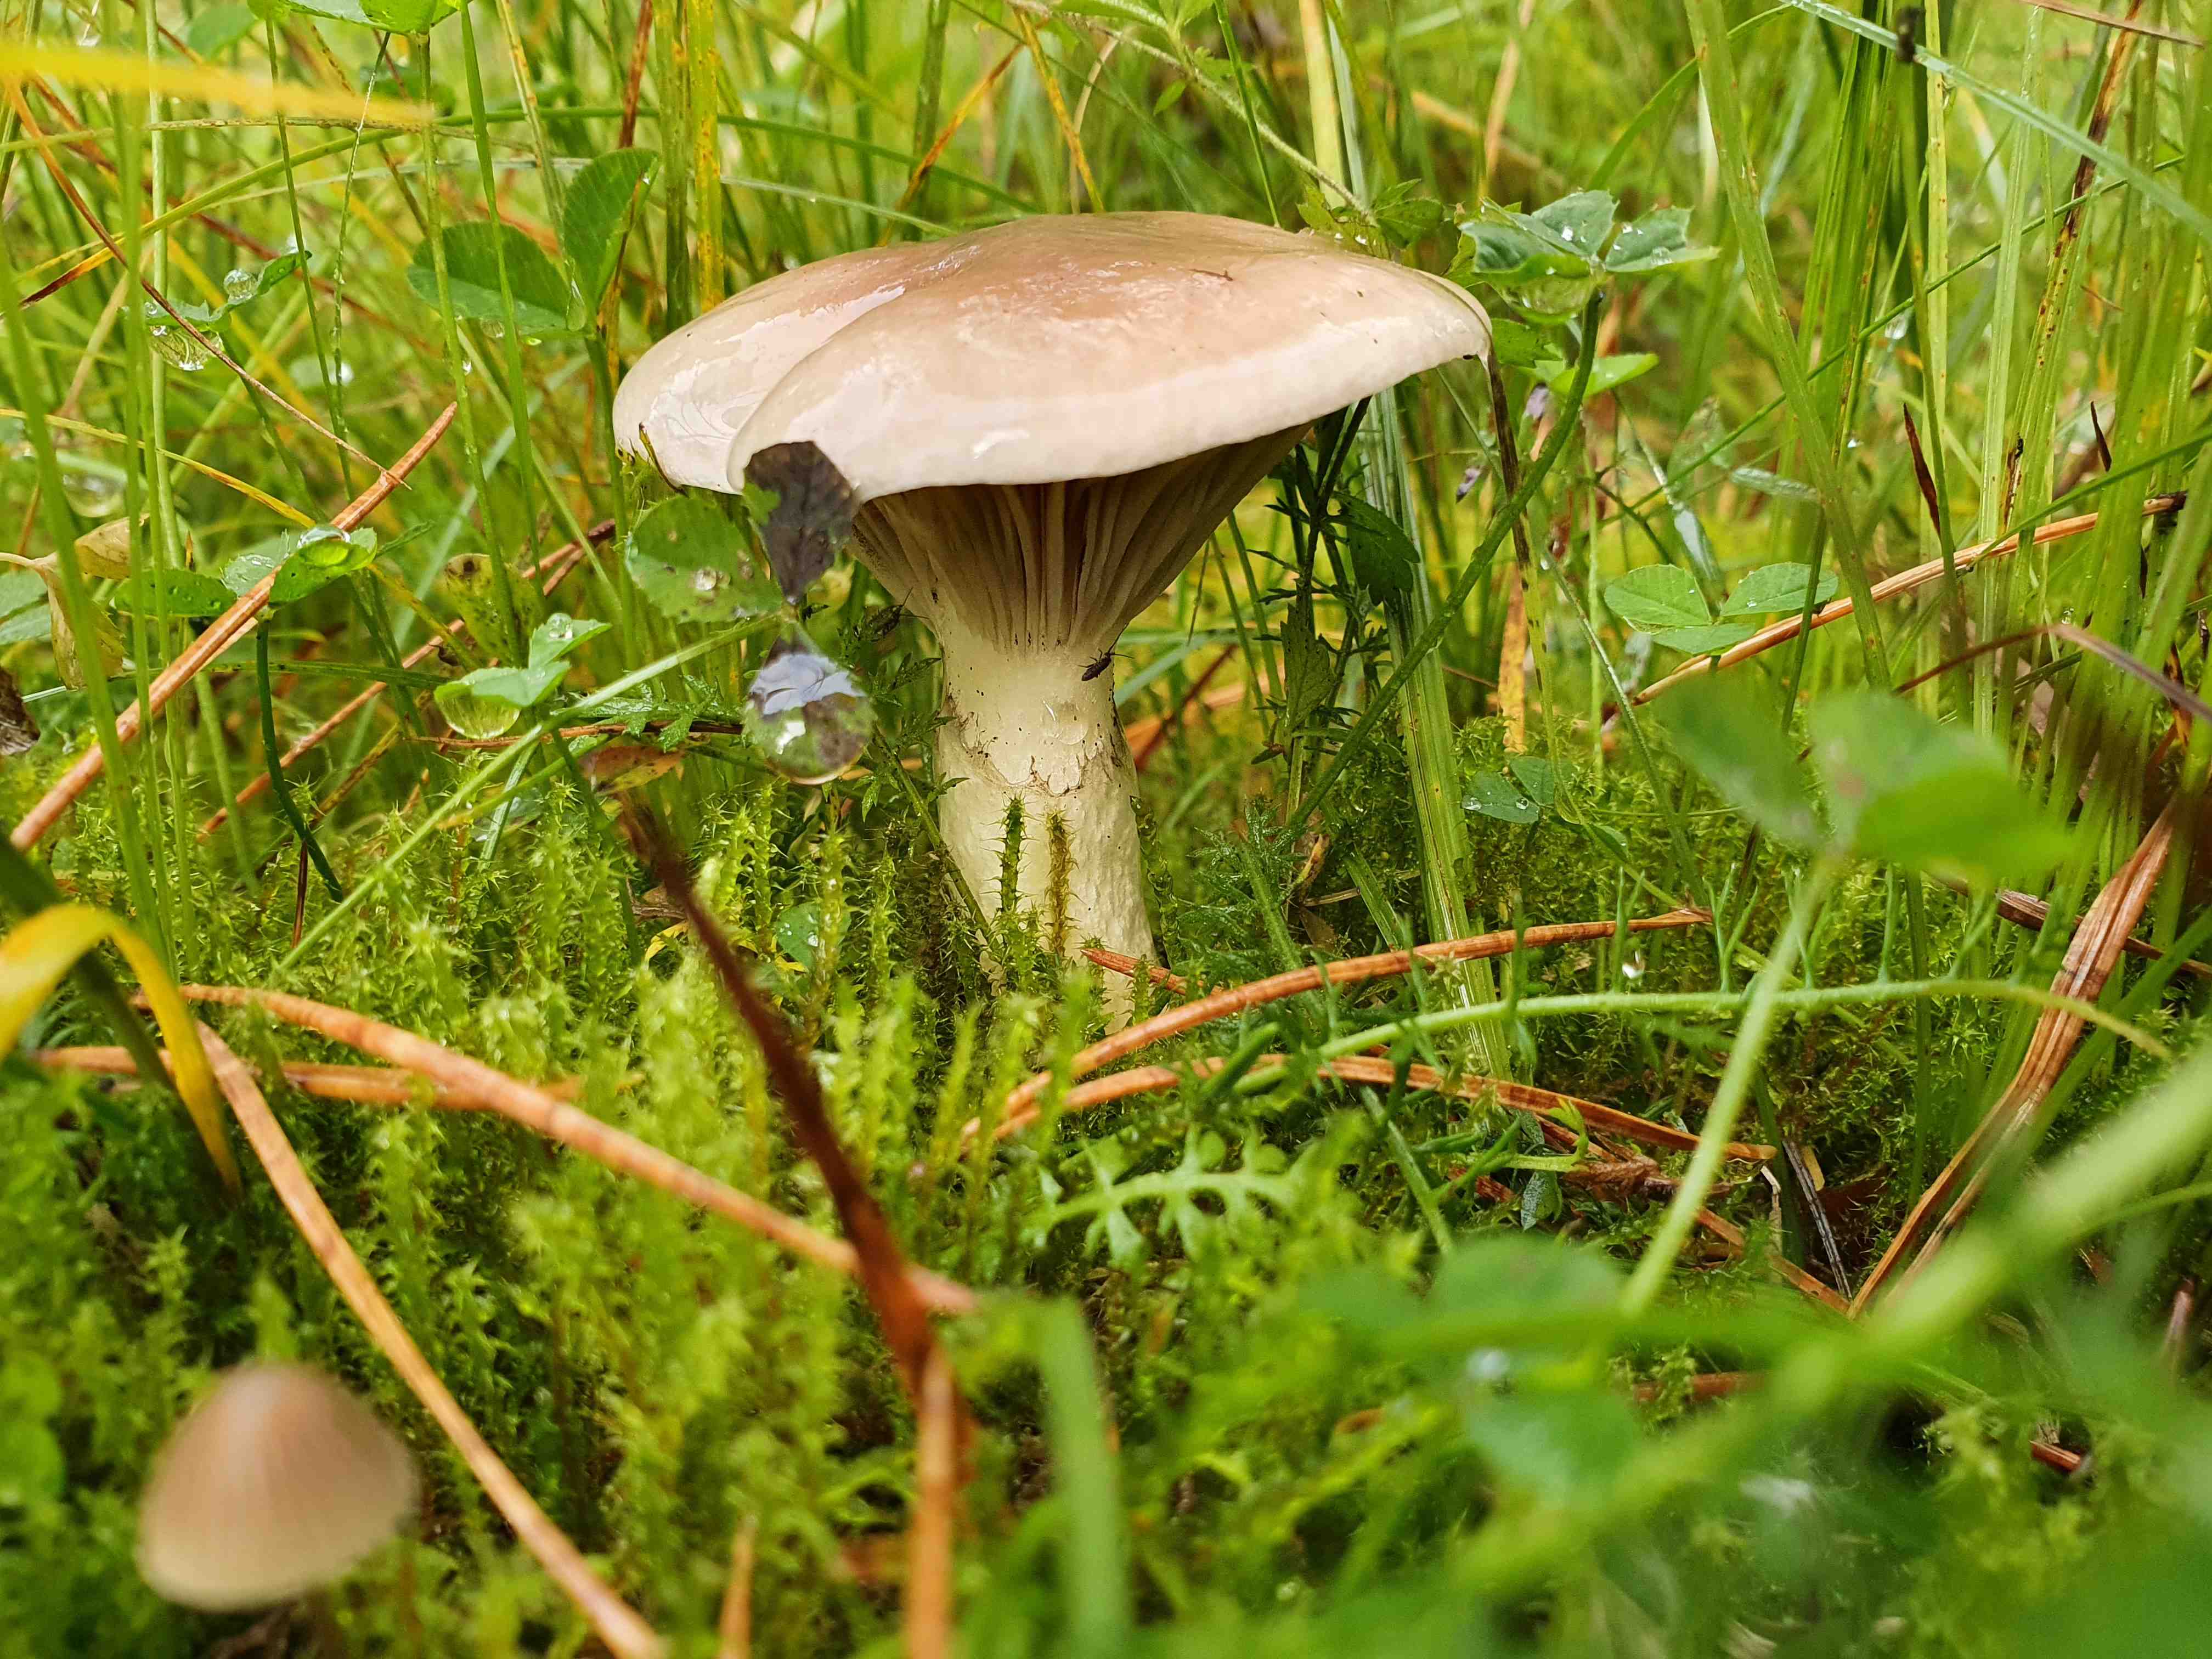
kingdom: Fungi
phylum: Basidiomycota
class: Agaricomycetes
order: Boletales
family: Gomphidiaceae
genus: Gomphidius
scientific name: Gomphidius glutinosus
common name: grå slimslør
